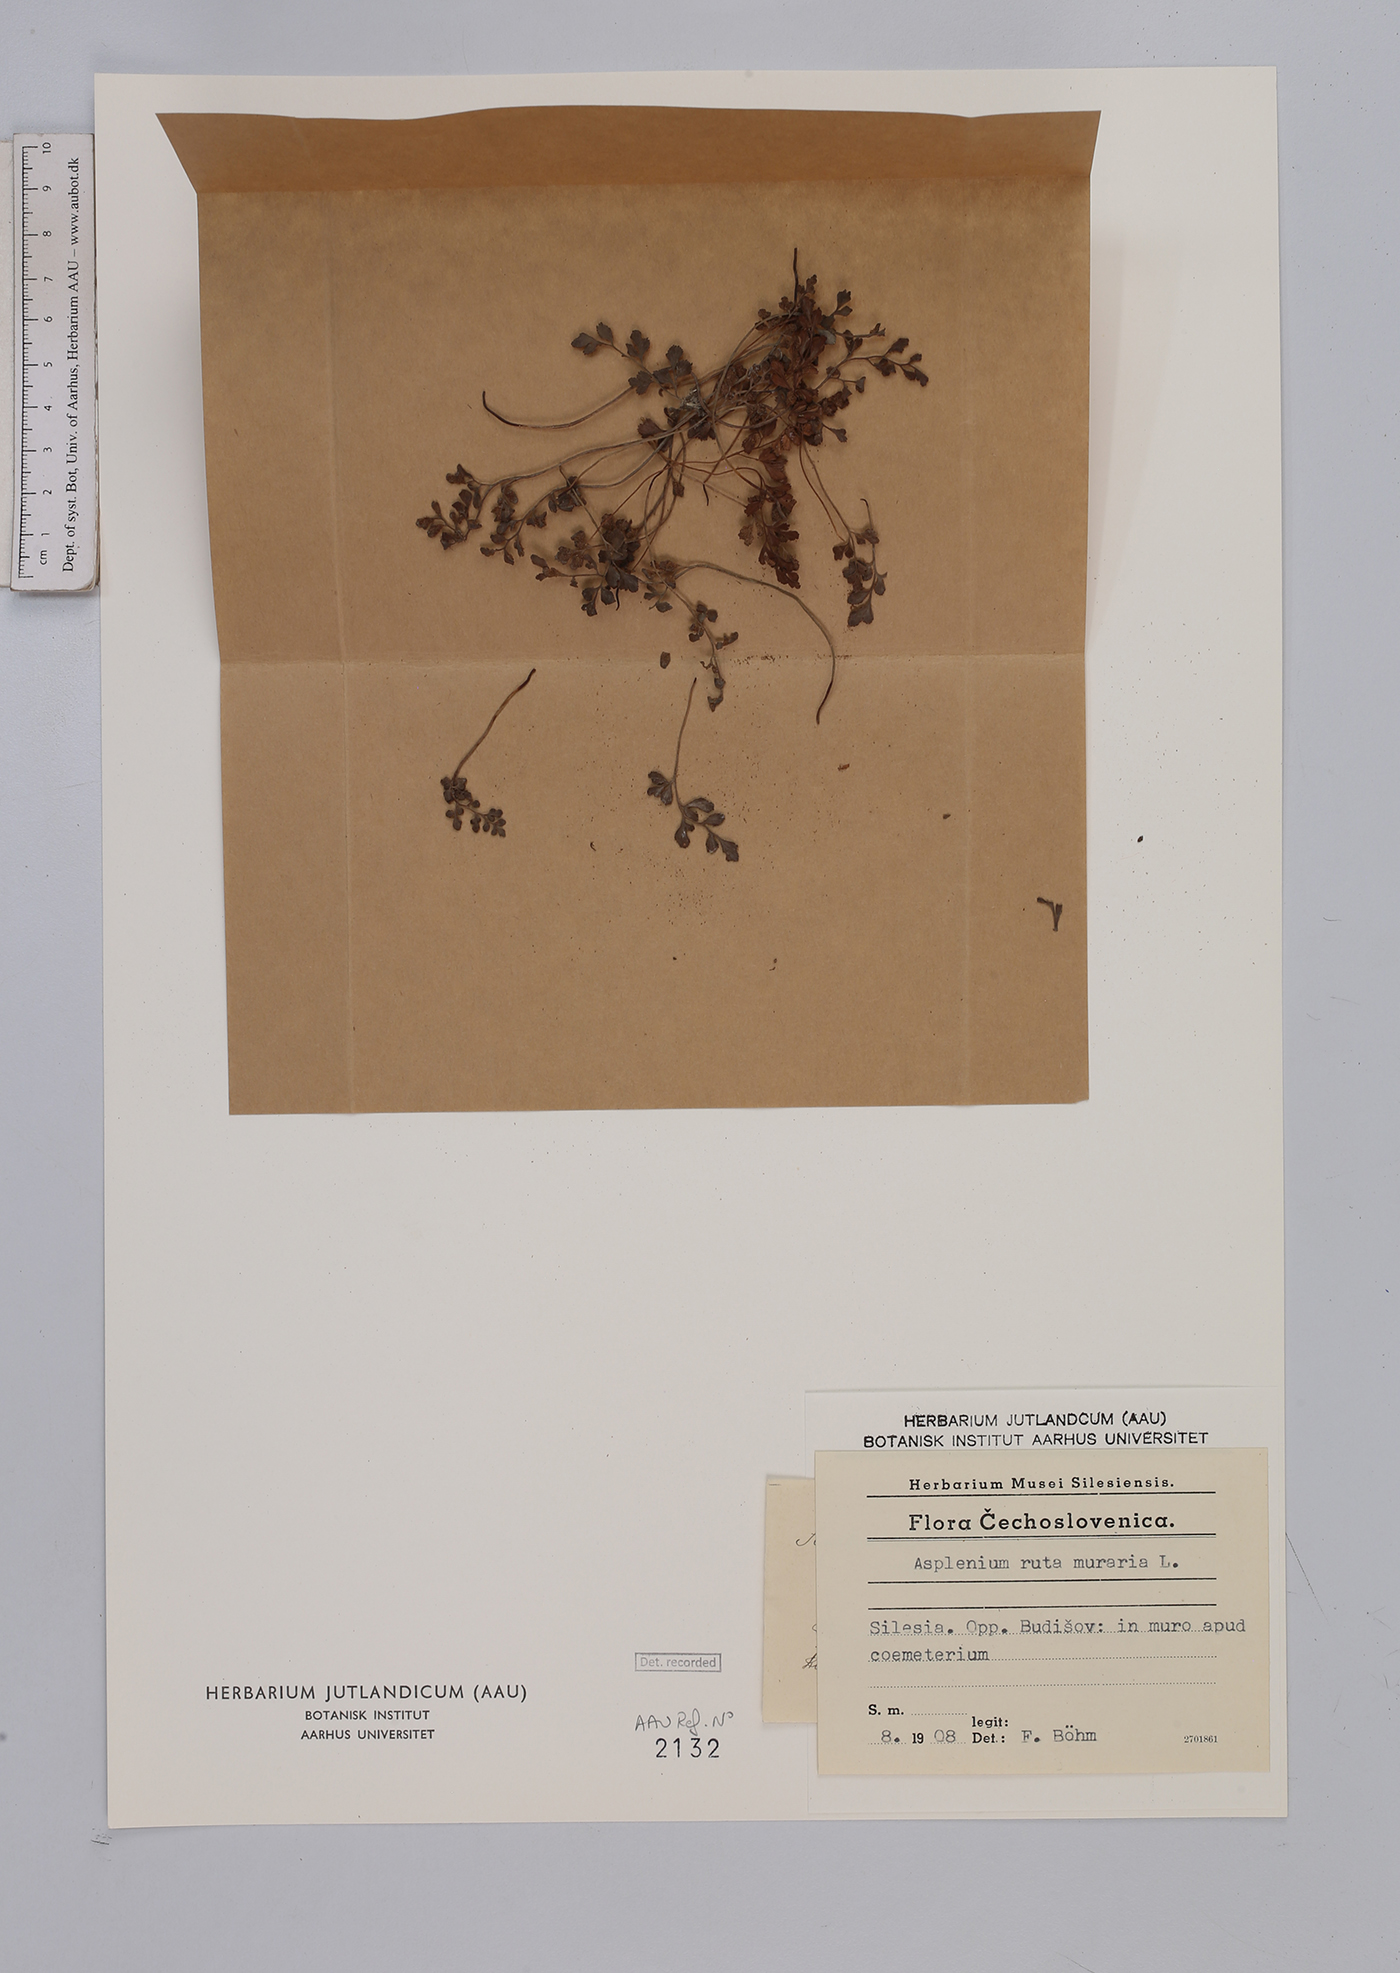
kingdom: Plantae
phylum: Tracheophyta
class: Polypodiopsida
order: Polypodiales
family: Aspleniaceae
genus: Asplenium
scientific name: Asplenium ruta-muraria
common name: Wall-rue
